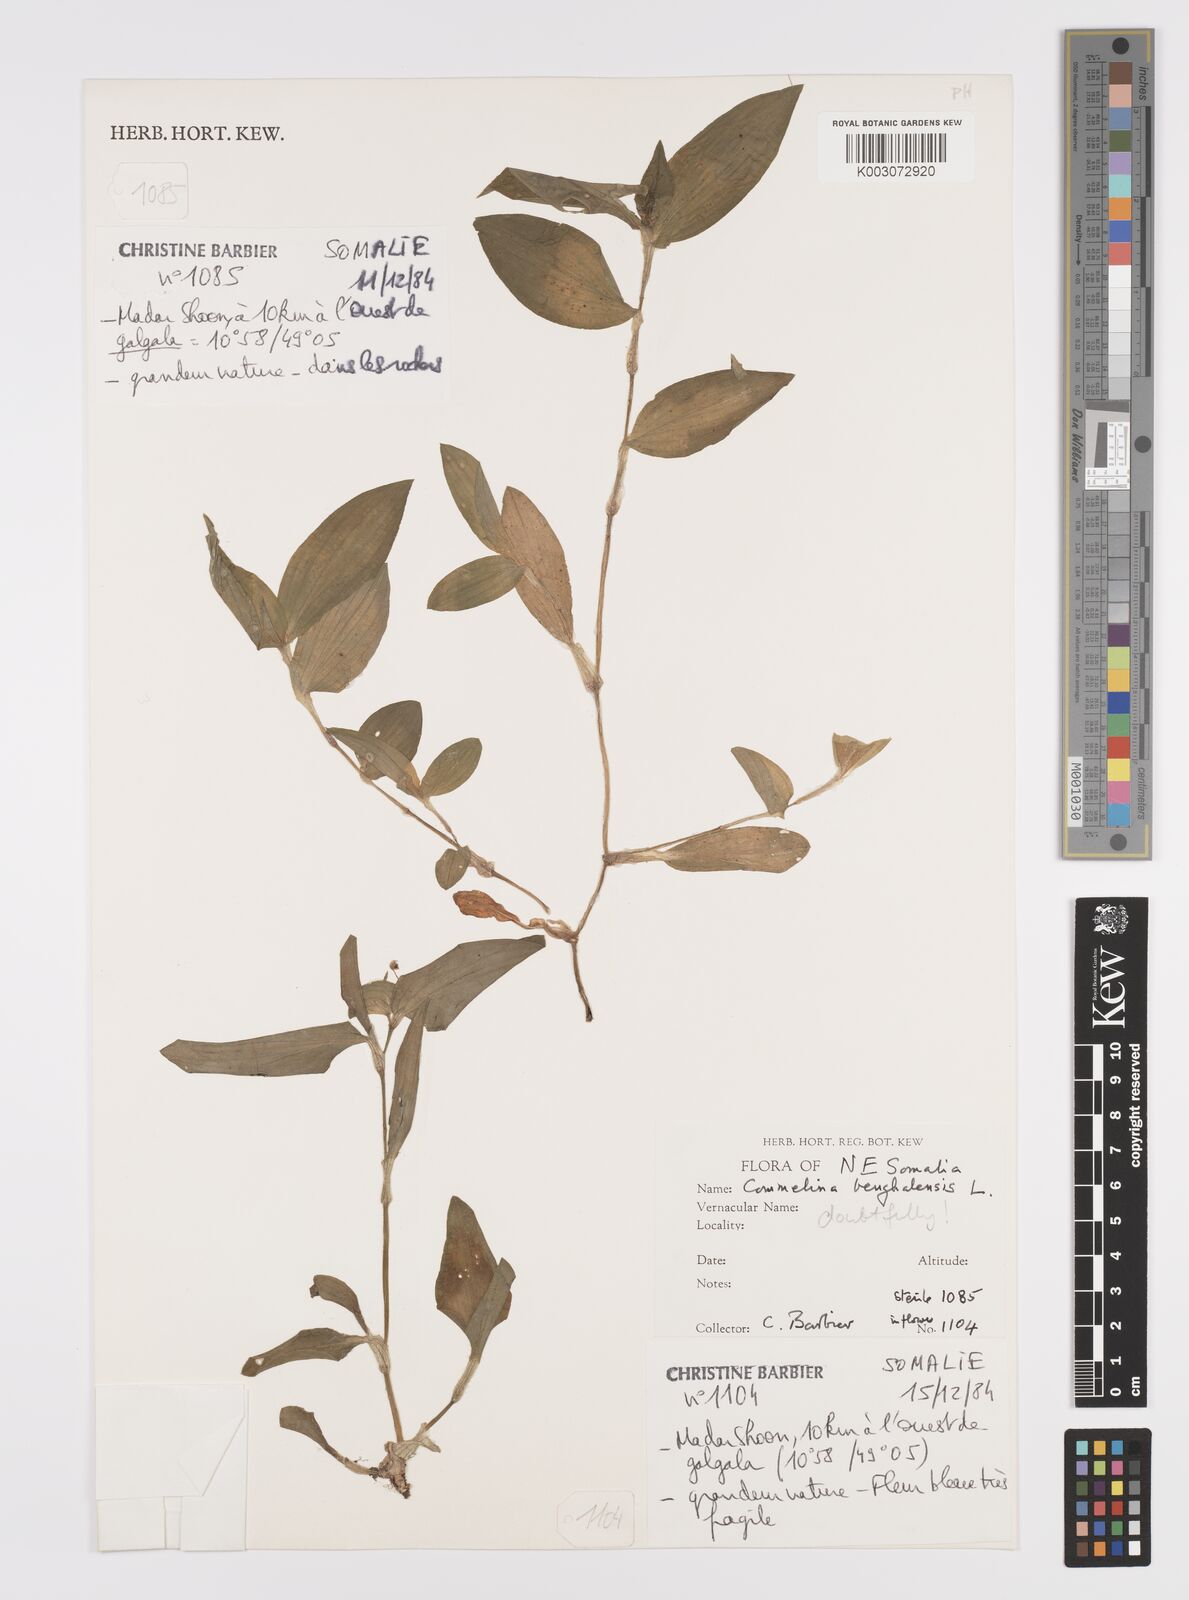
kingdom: Plantae
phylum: Tracheophyta
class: Liliopsida
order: Commelinales
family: Commelinaceae
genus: Commelina
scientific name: Commelina benghalensis
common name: Jio
